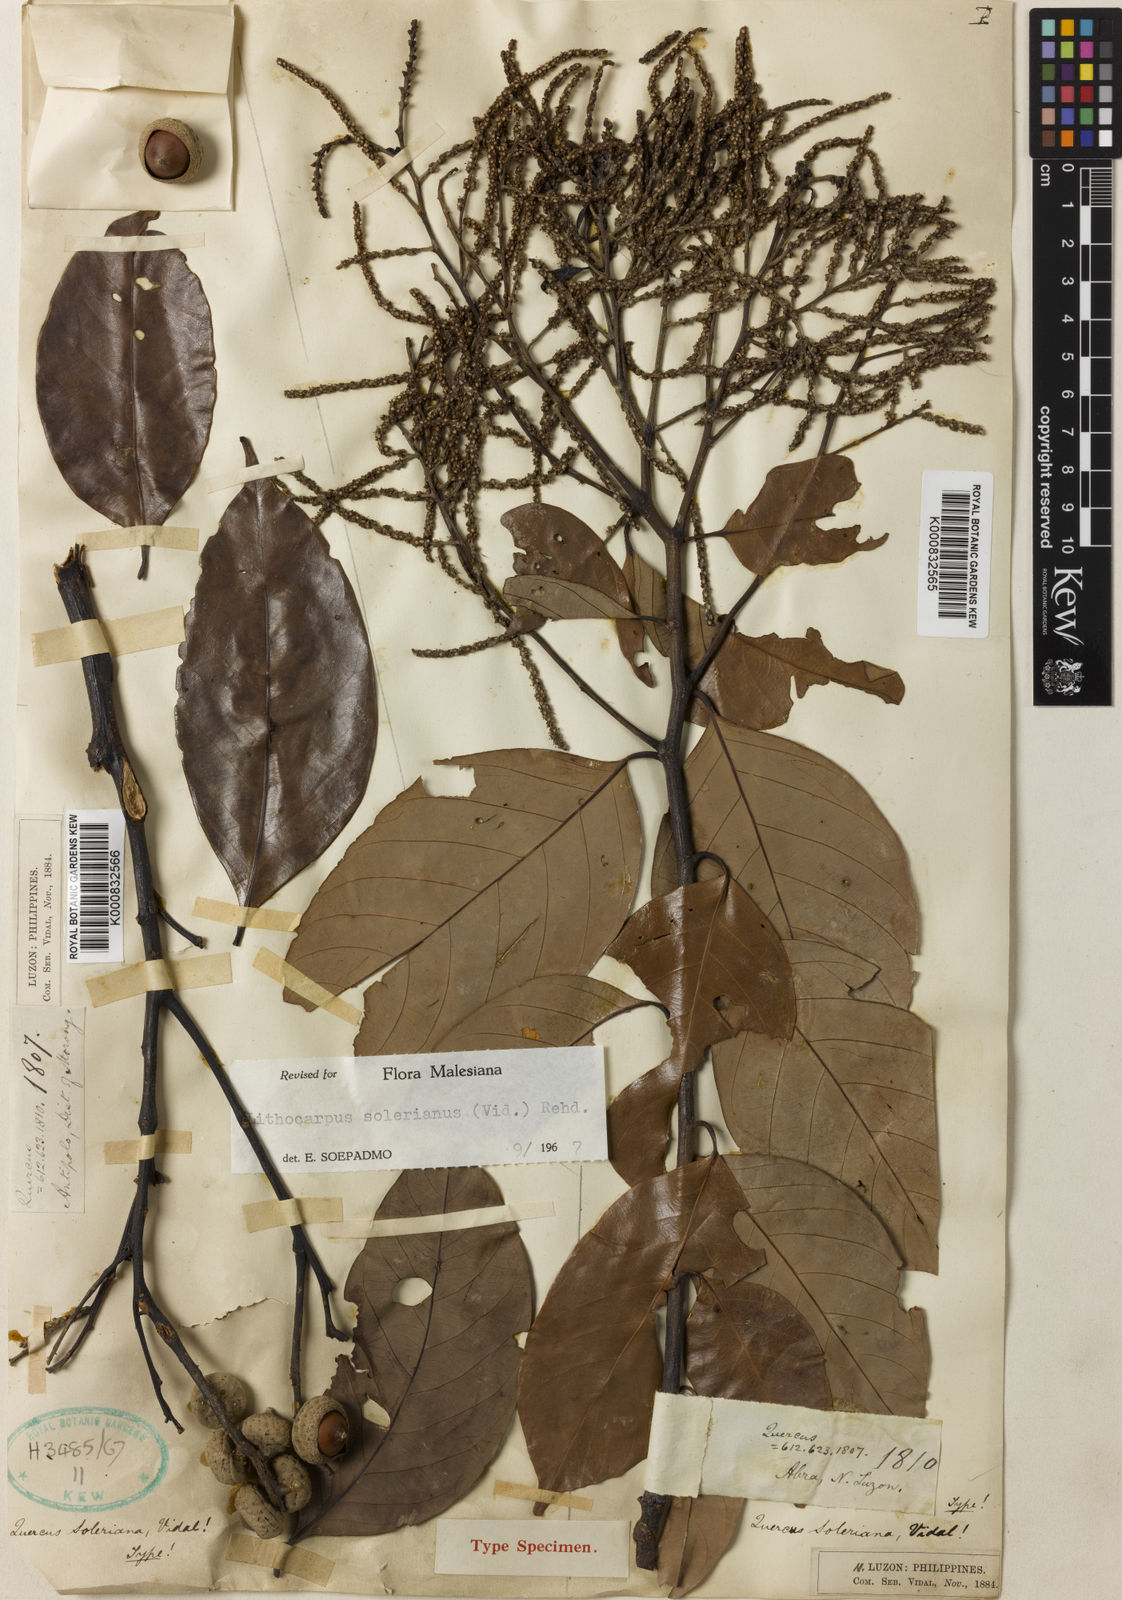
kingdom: Plantae
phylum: Tracheophyta
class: Magnoliopsida
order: Fagales
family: Fagaceae
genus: Lithocarpus
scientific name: Lithocarpus solerianus
